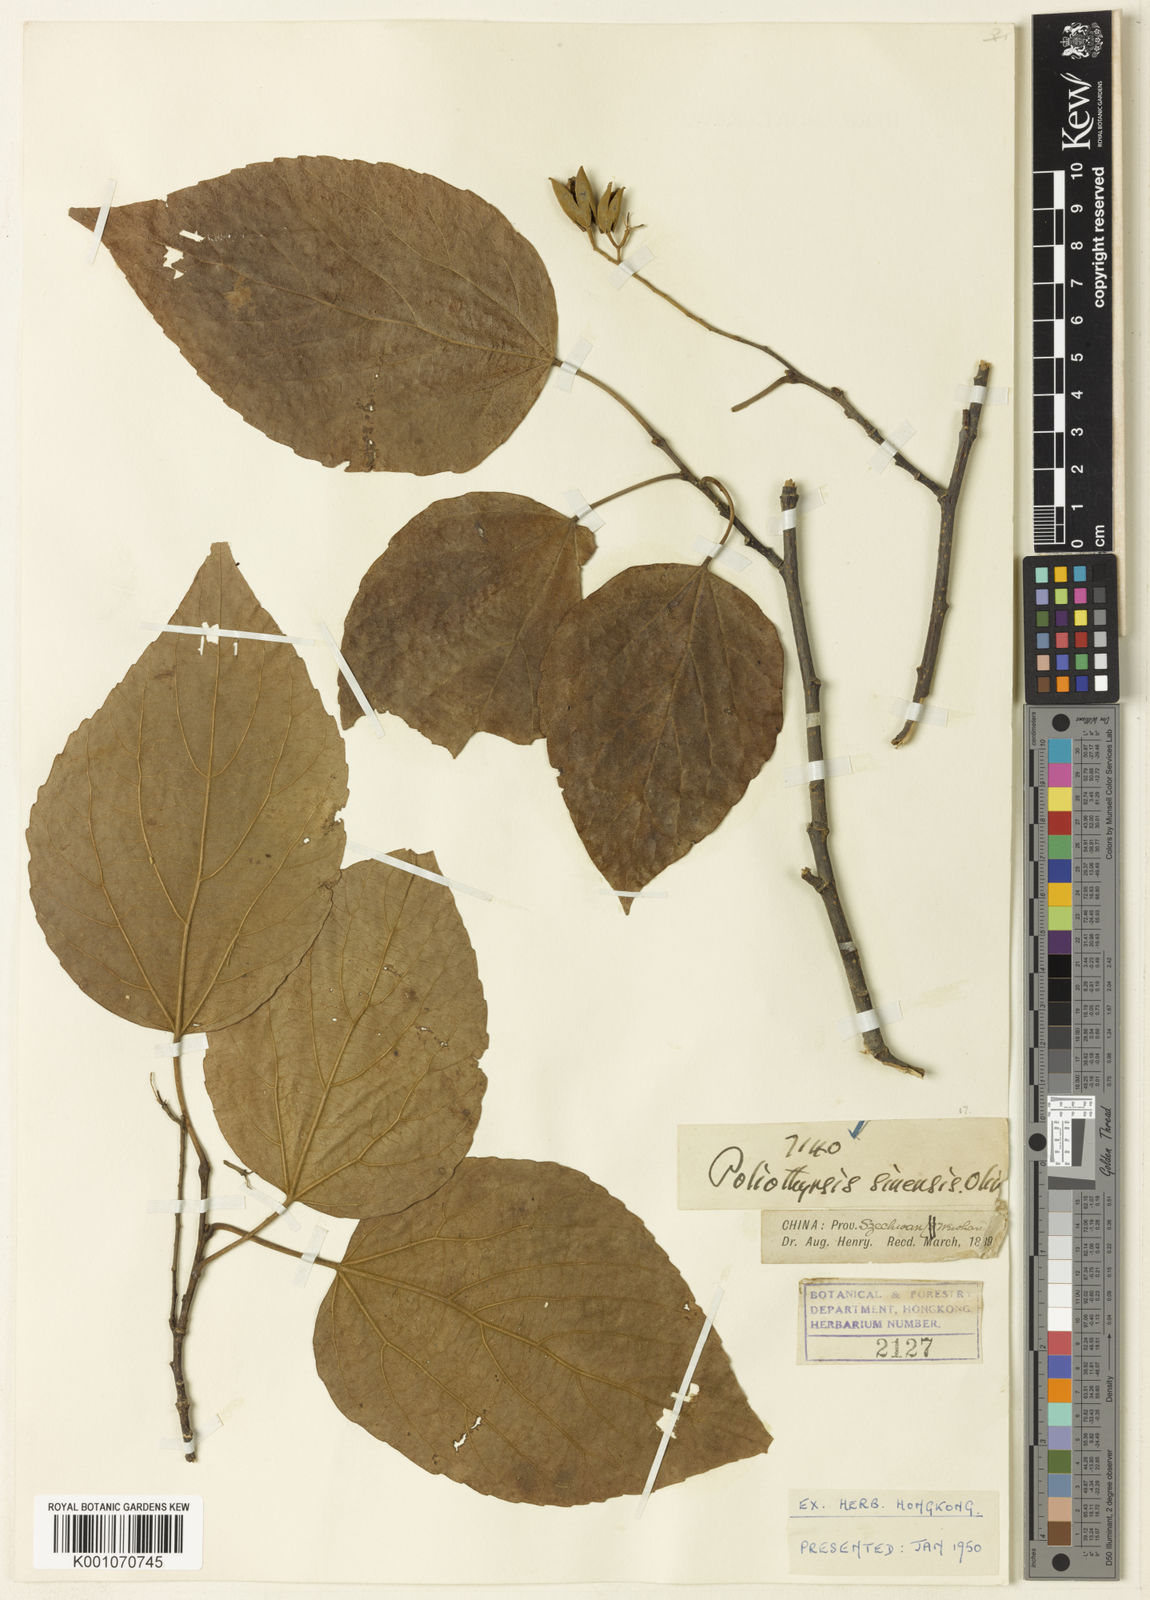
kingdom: Plantae
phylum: Tracheophyta
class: Magnoliopsida
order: Malpighiales
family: Salicaceae
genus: Poliothyrsis
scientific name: Poliothyrsis
